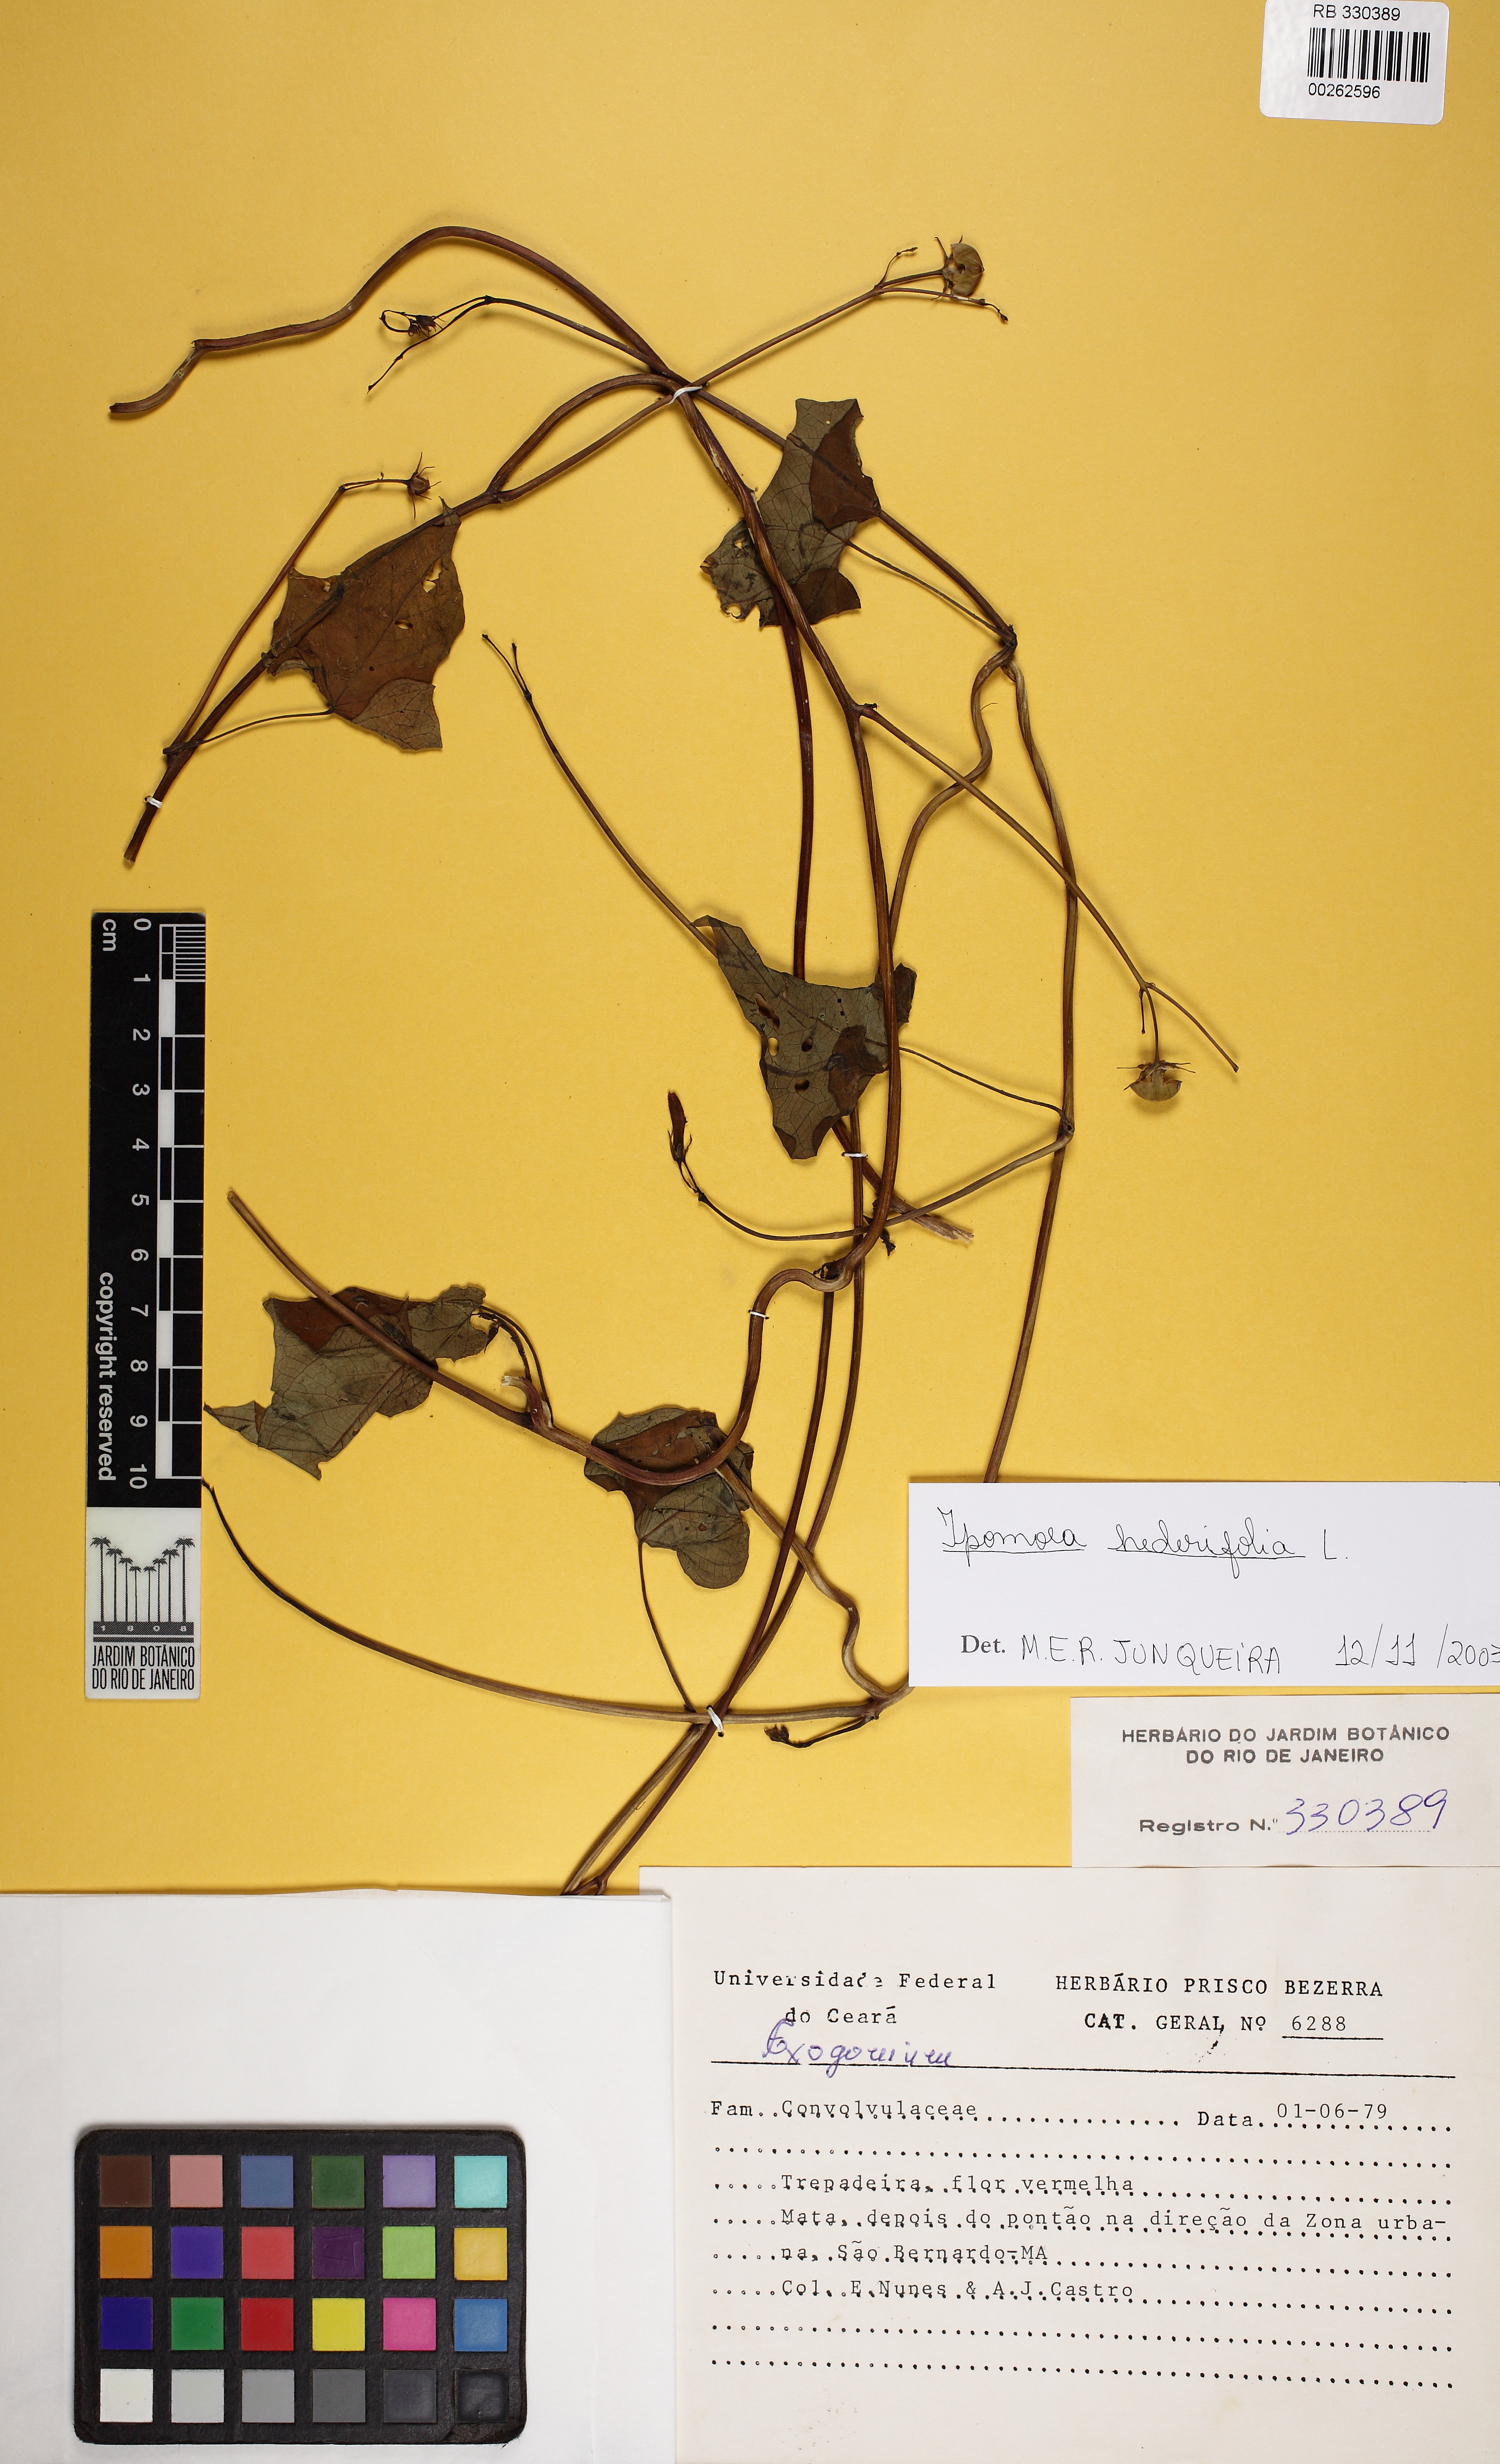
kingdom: Plantae
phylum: Tracheophyta
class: Magnoliopsida
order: Solanales
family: Convolvulaceae
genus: Ipomoea
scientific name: Ipomoea hederifolia
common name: Ivy-leaf morning-glory
